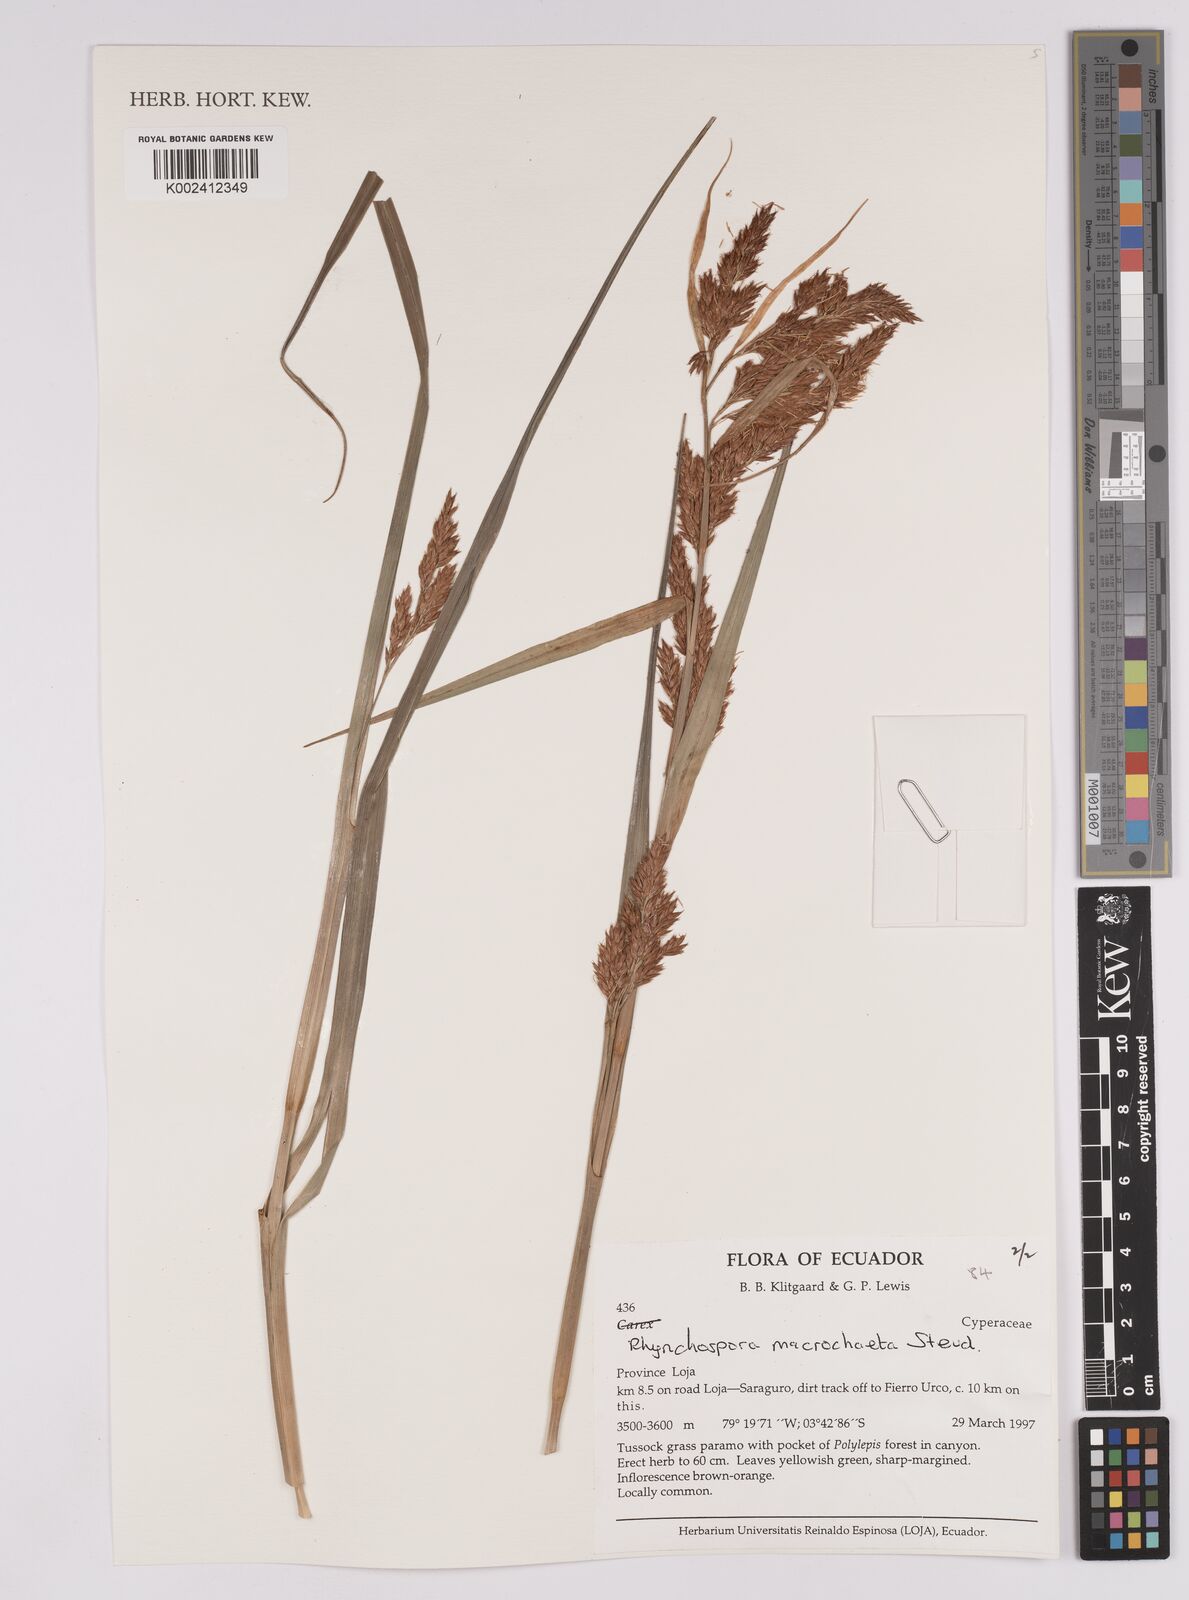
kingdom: Plantae
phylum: Tracheophyta
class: Liliopsida
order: Poales
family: Cyperaceae
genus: Rhynchospora
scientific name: Rhynchospora macrochaeta
